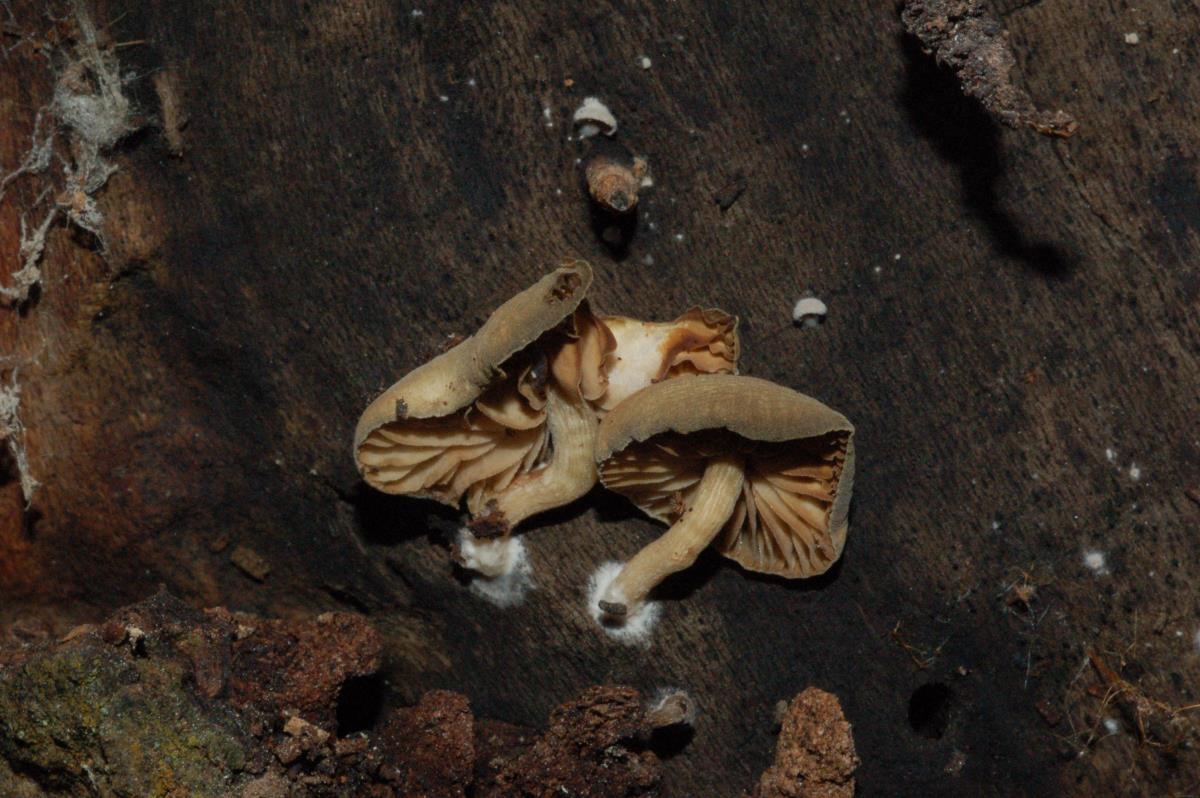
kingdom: Fungi
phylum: Basidiomycota
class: Agaricomycetes
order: Agaricales
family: Crepidotaceae
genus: Simocybe
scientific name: Simocybe pruinata
